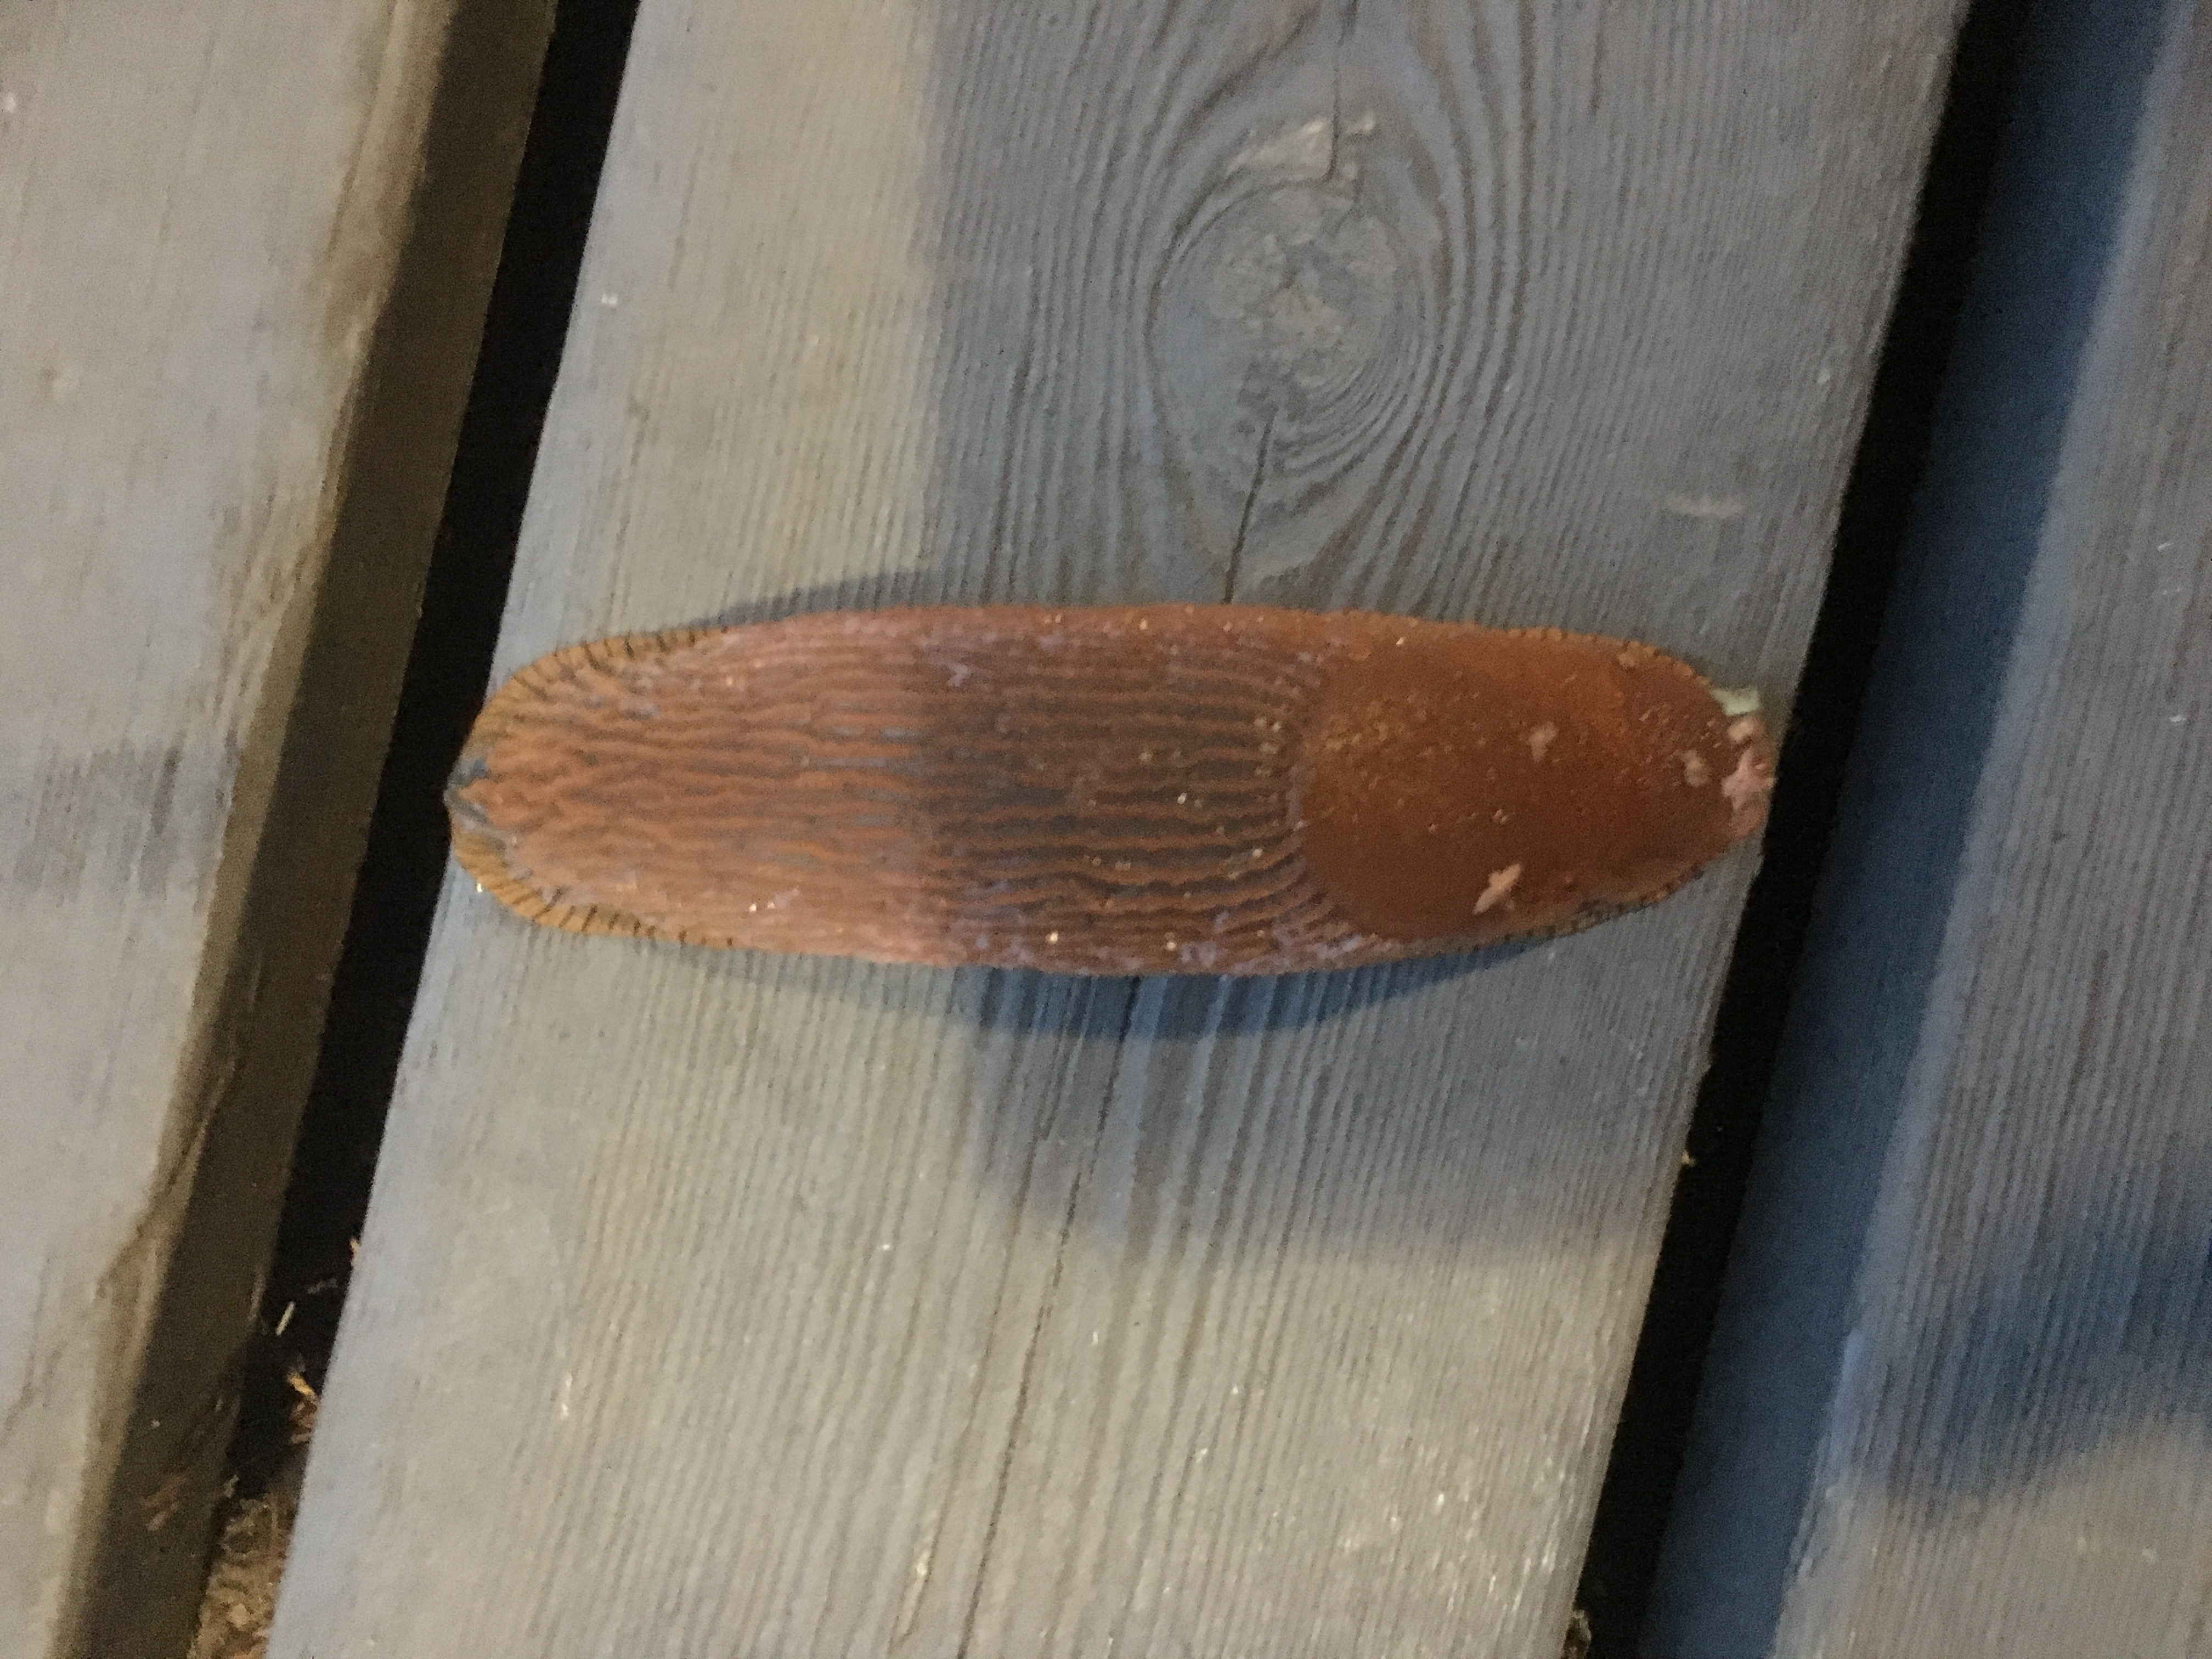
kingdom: Animalia
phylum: Mollusca
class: Gastropoda
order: Stylommatophora
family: Arionidae
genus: Arion
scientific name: Arion vulgaris
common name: Lusitanian slug
